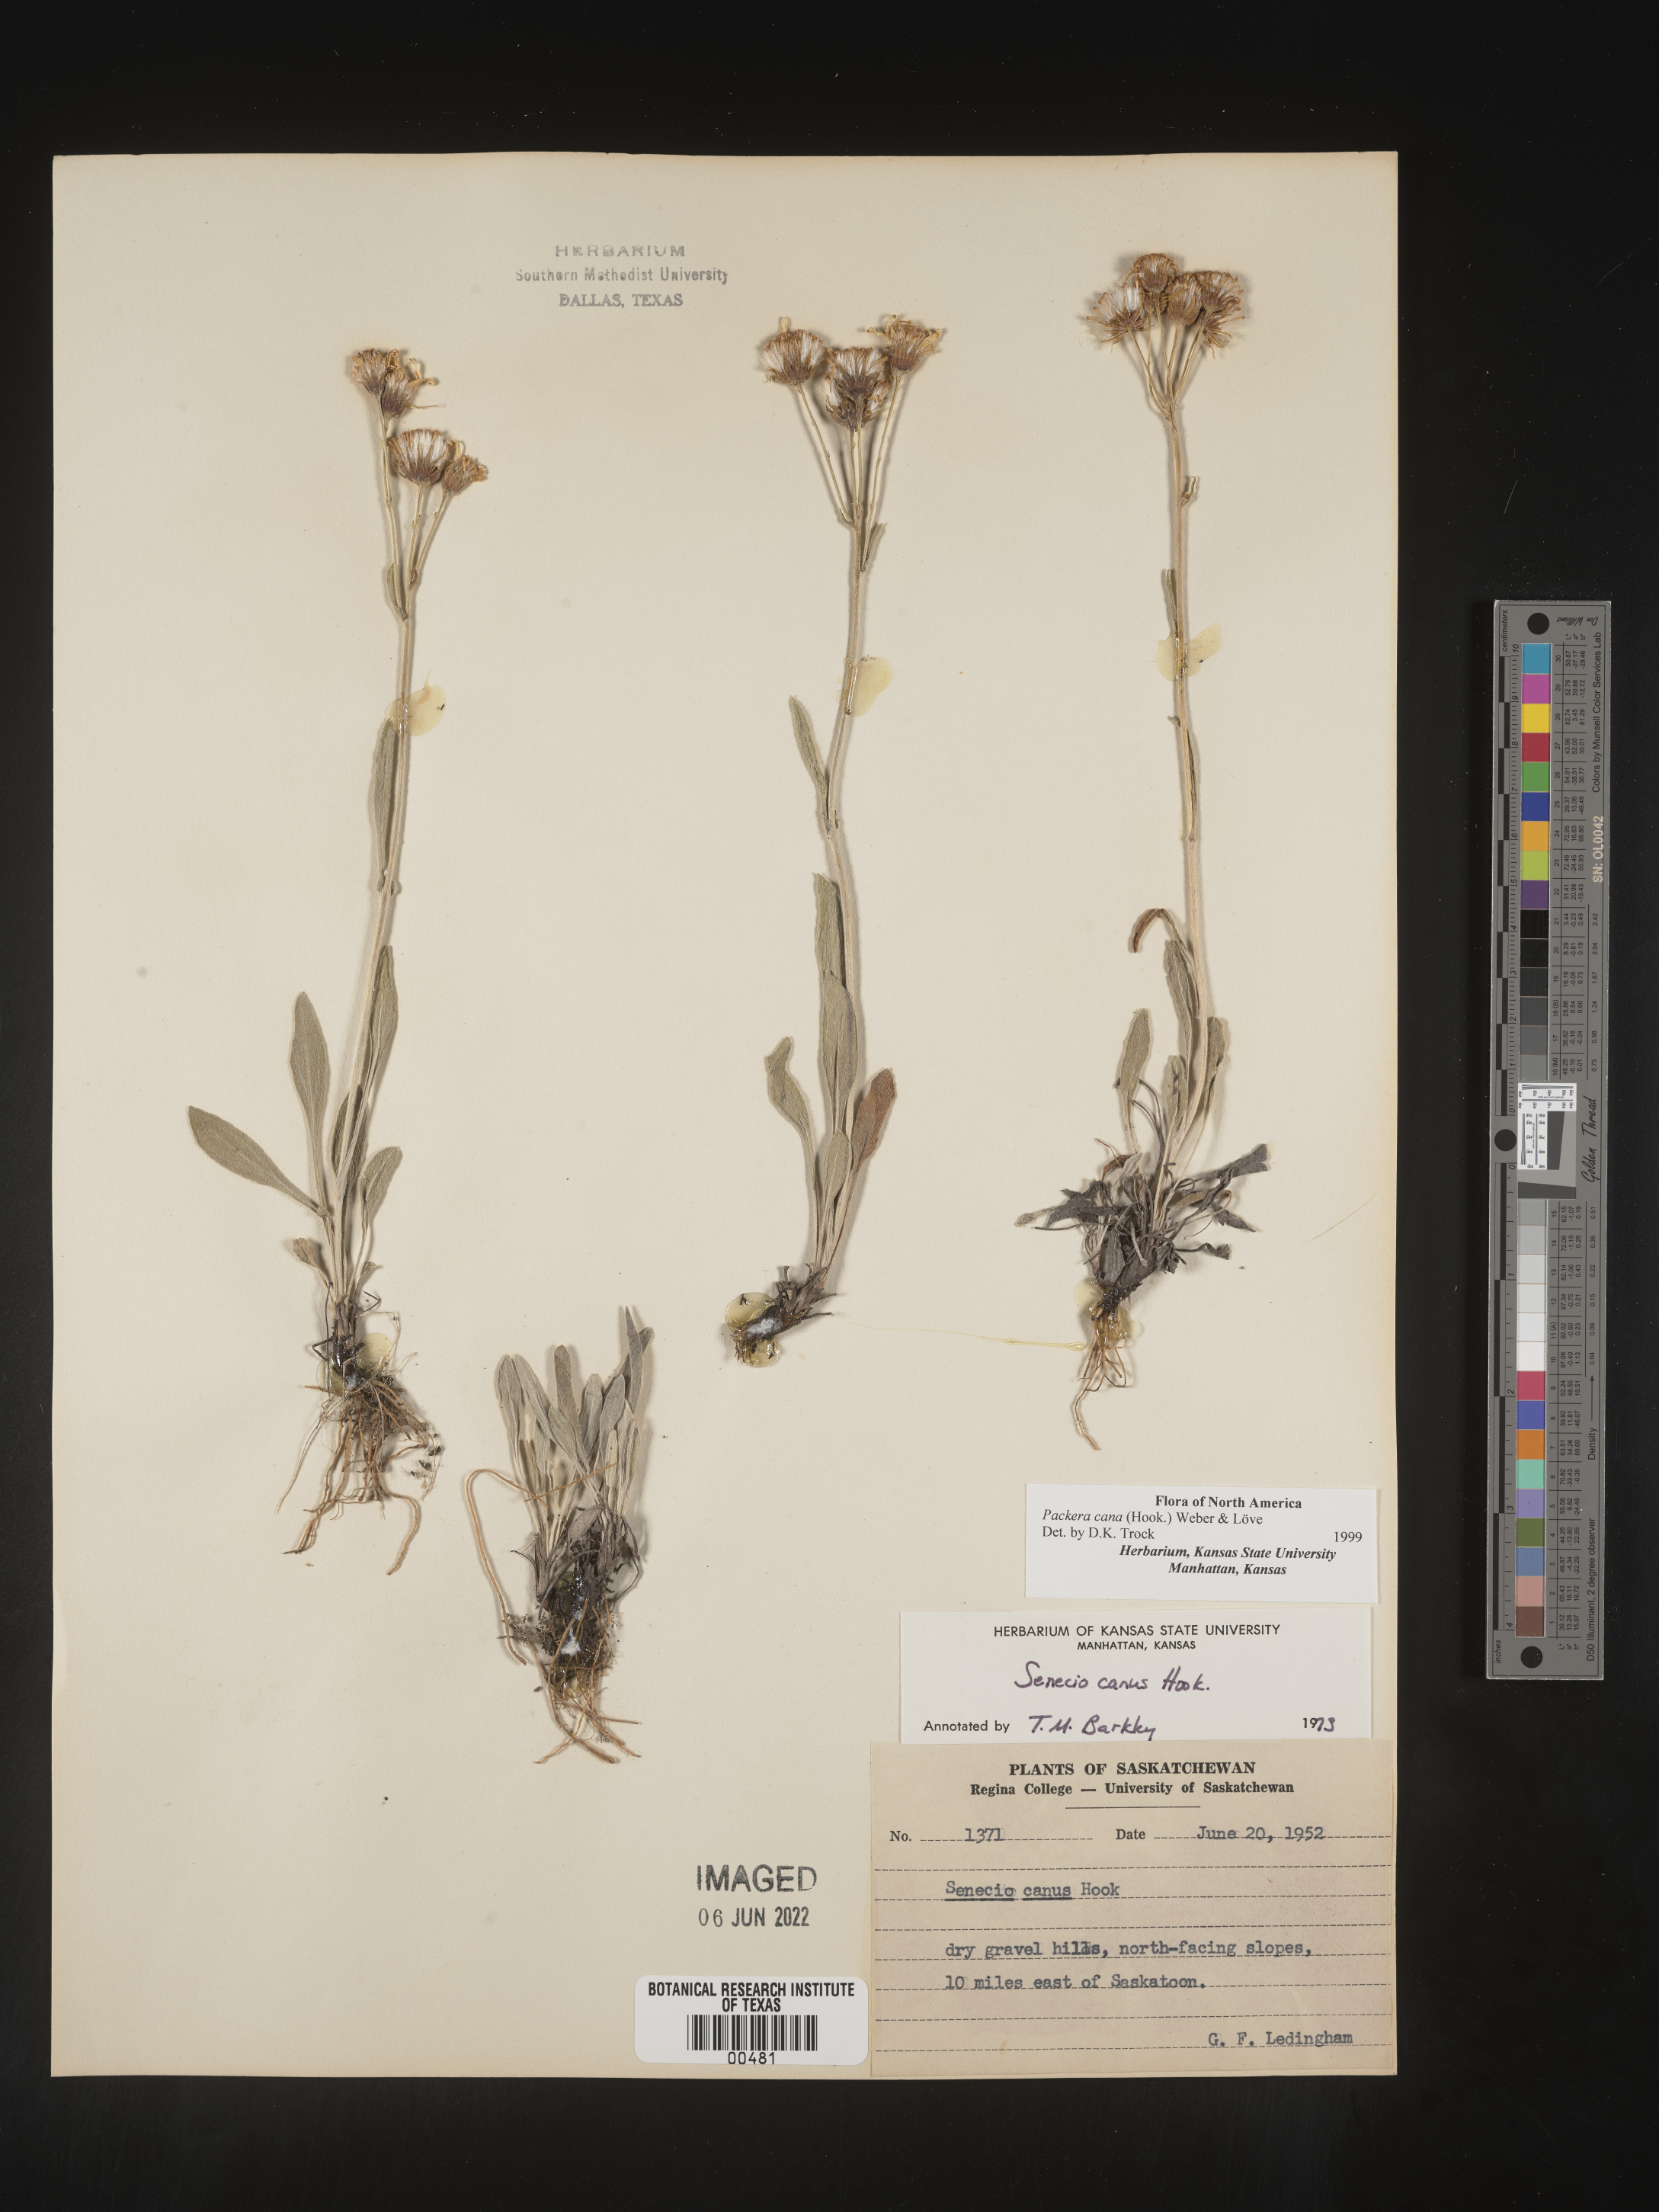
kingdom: Plantae
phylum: Tracheophyta
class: Magnoliopsida
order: Asterales
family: Asteraceae
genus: Packera
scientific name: Packera cana
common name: Woolly groundsel
